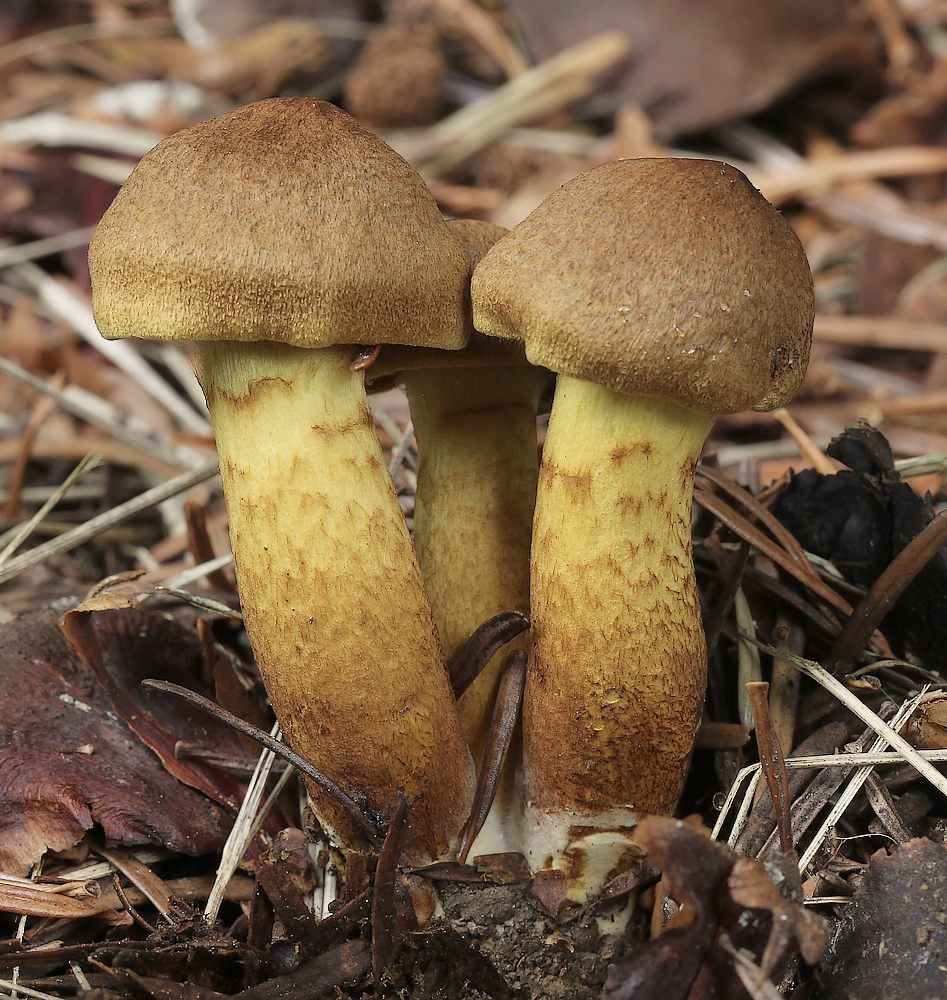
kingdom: Fungi
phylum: Basidiomycota
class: Agaricomycetes
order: Agaricales
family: Cortinariaceae
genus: Cortinarius
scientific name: Cortinarius
